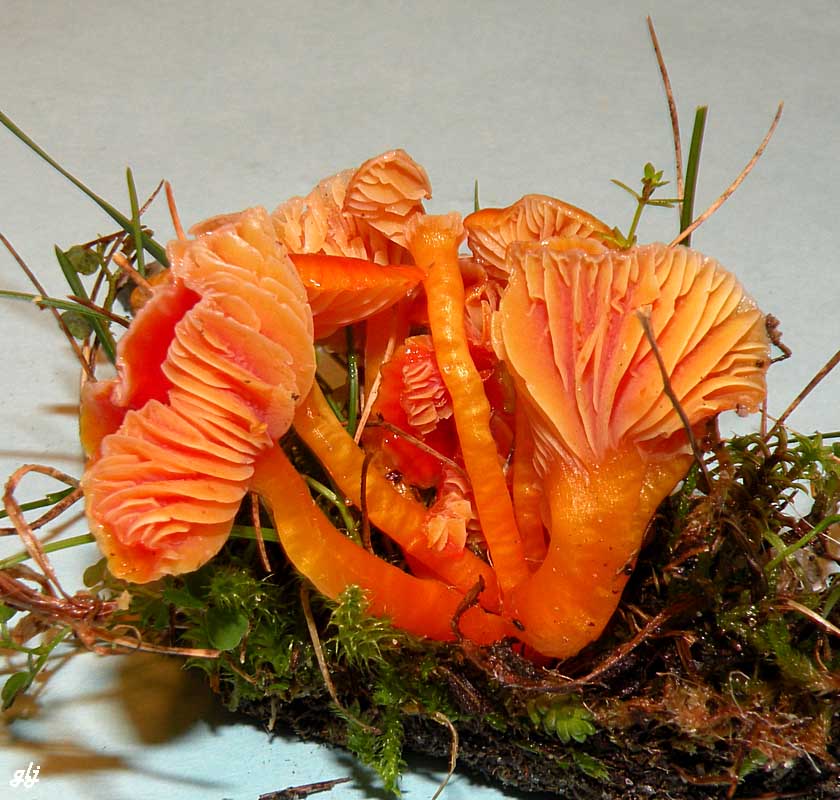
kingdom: Fungi
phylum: Basidiomycota
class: Agaricomycetes
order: Agaricales
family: Hygrophoraceae
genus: Hygrocybe
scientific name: Hygrocybe
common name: vokshat
